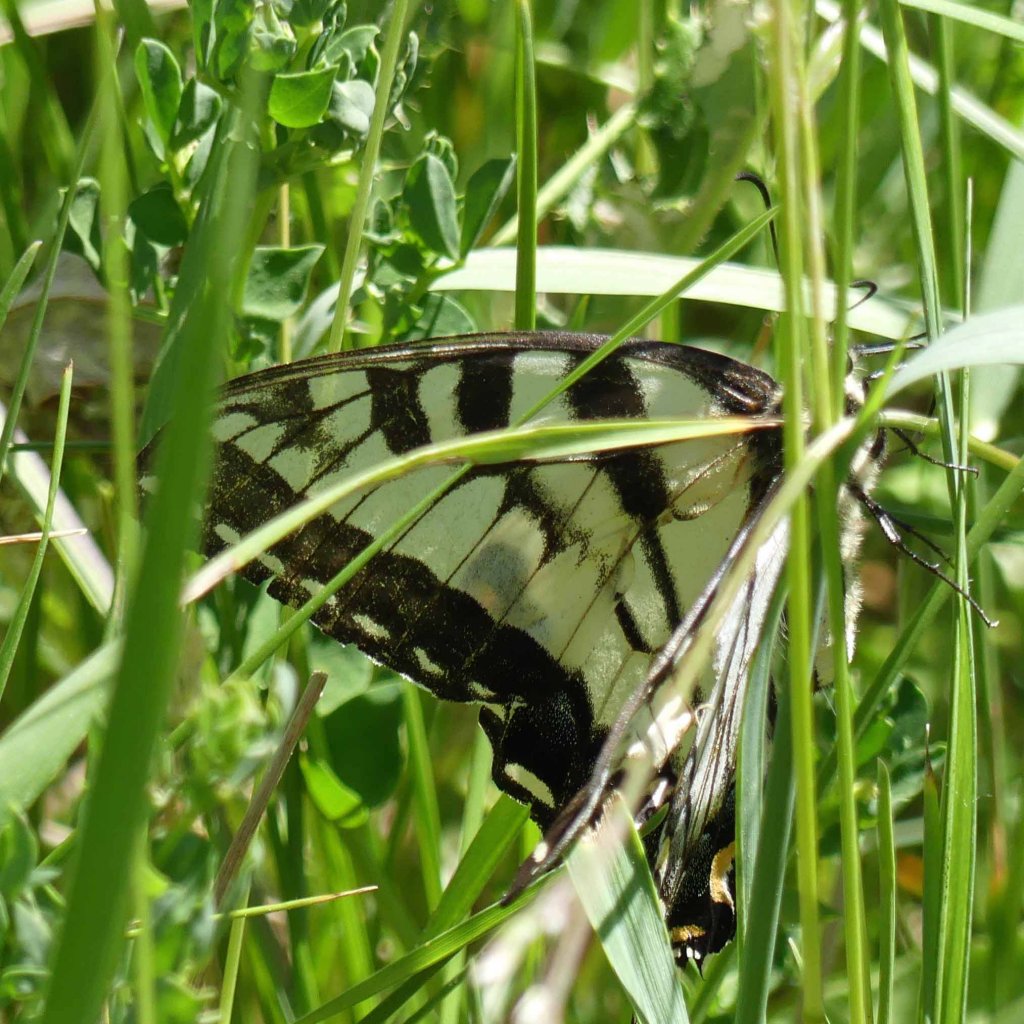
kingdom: Animalia
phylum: Arthropoda
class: Insecta
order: Lepidoptera
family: Papilionidae
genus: Pterourus
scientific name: Pterourus glaucus
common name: Eastern Tiger Swallowtail
